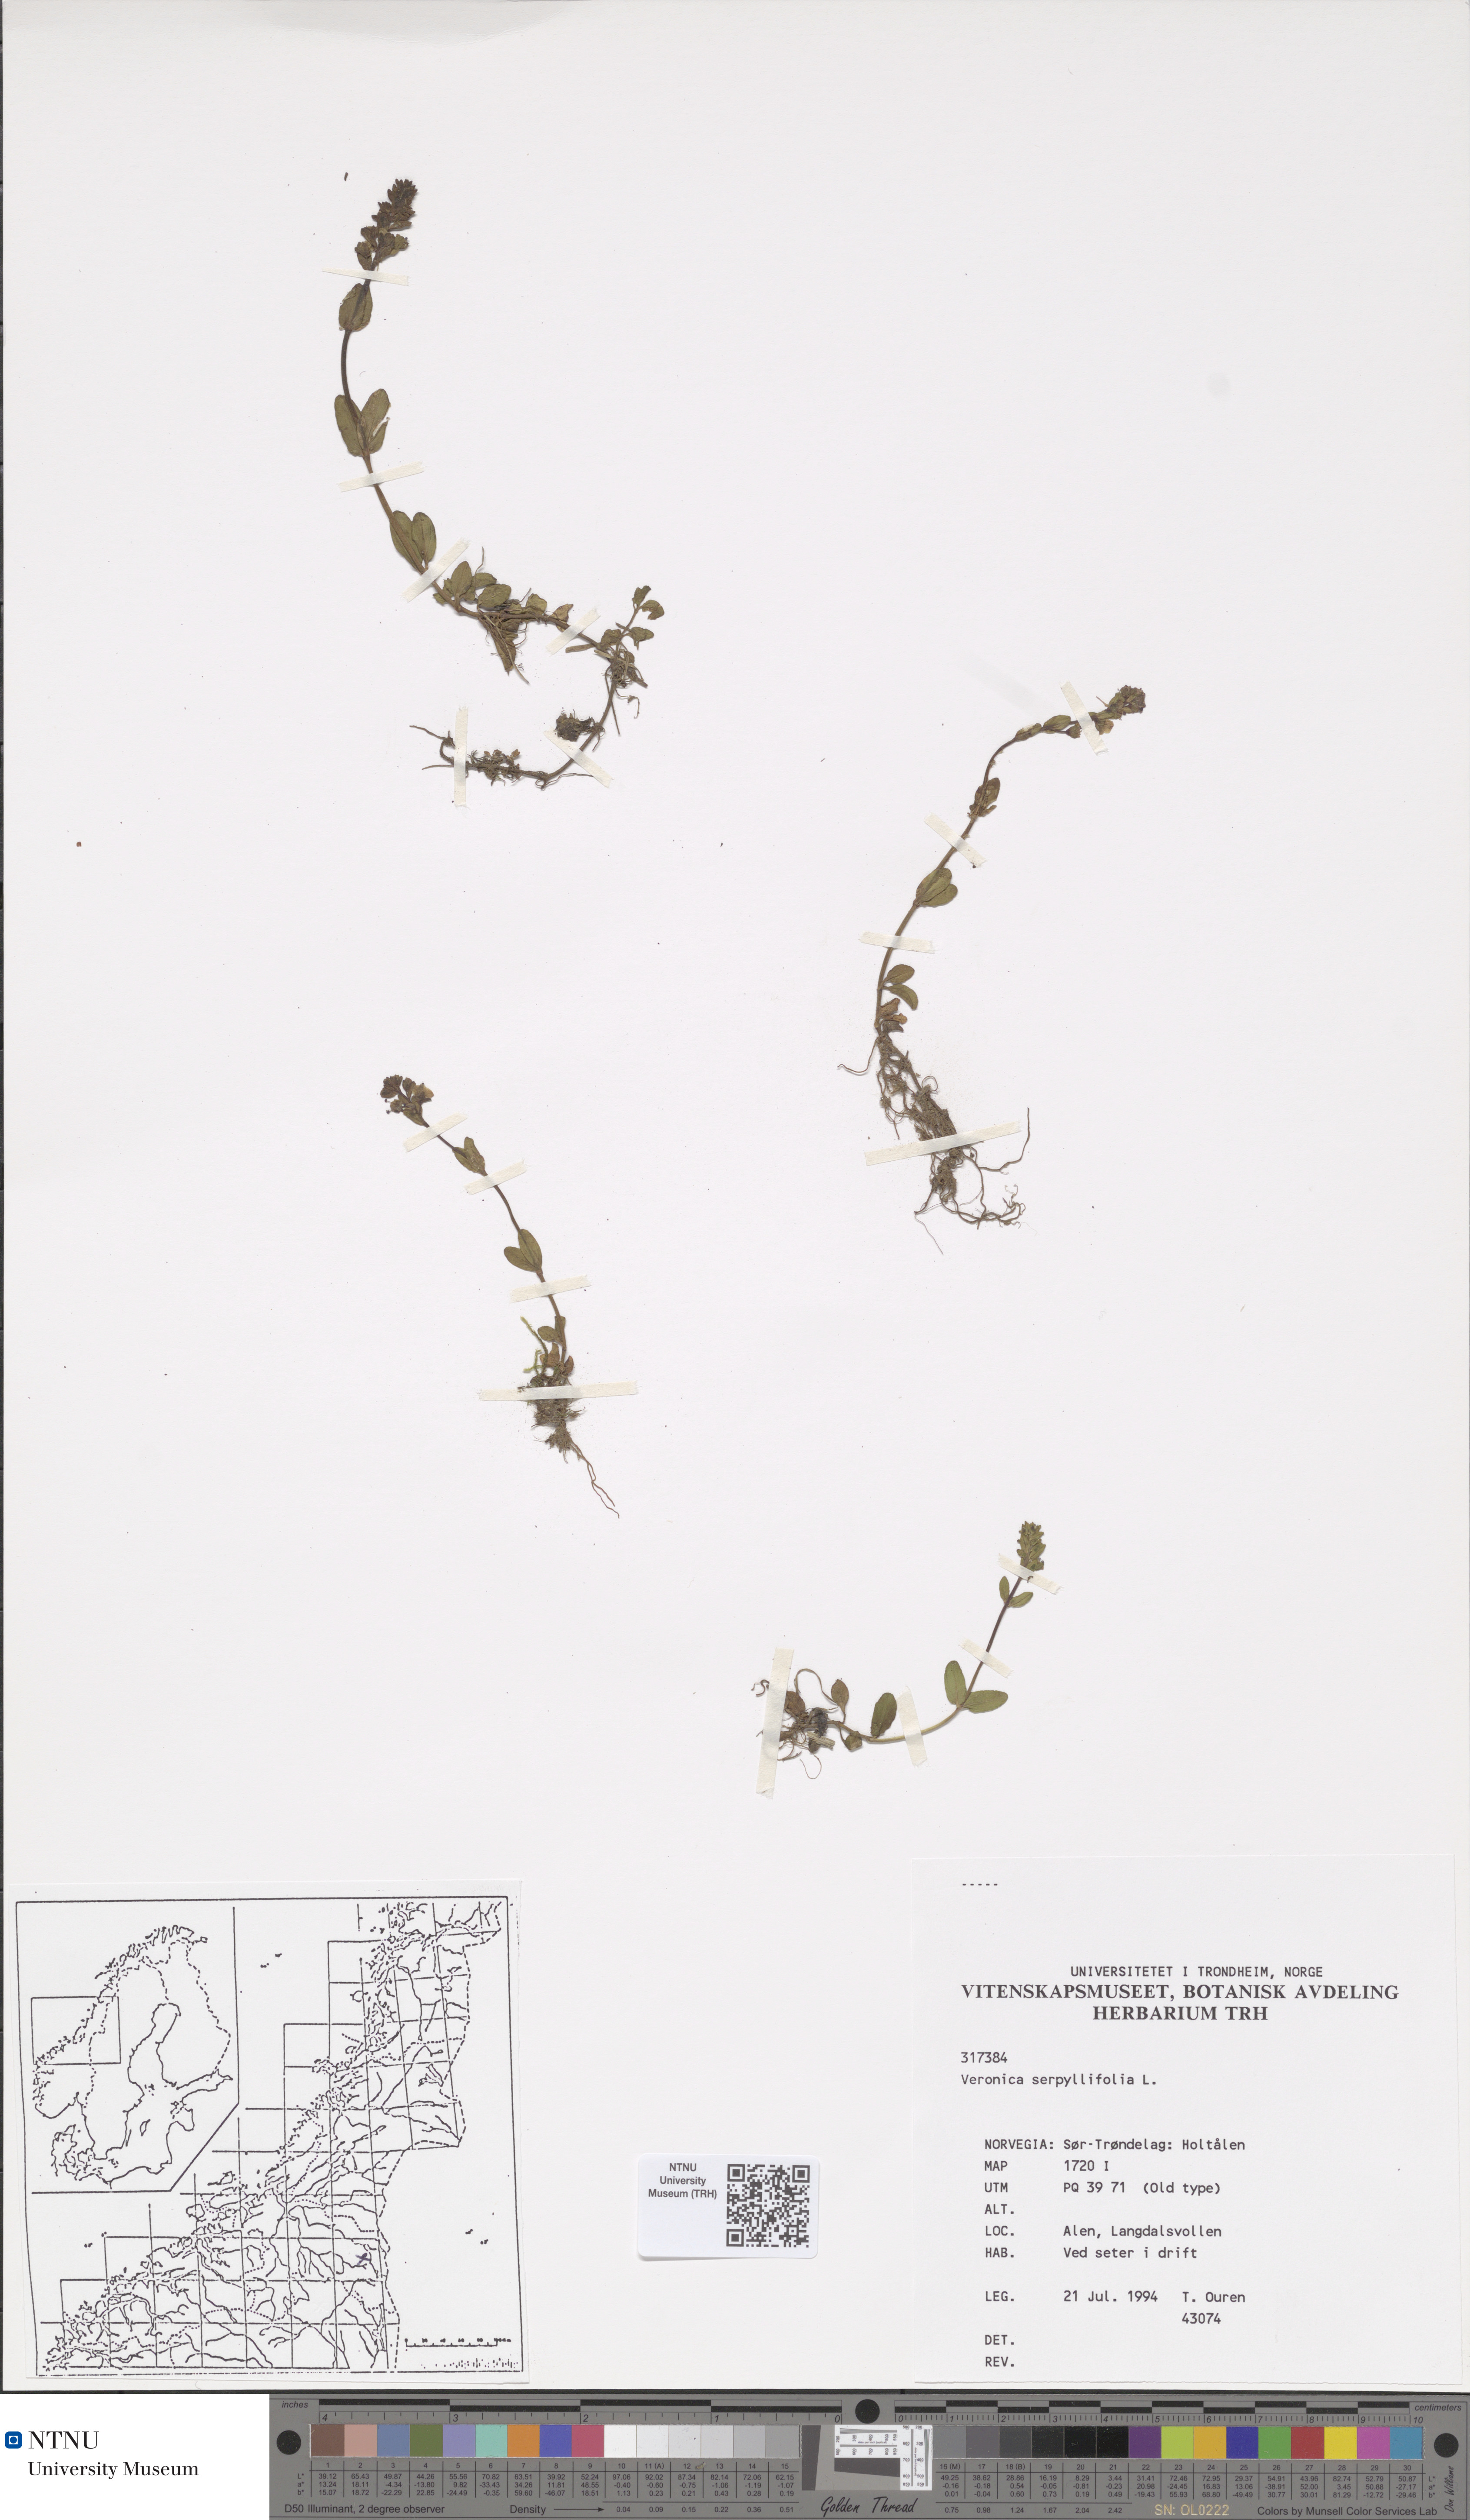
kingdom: Plantae
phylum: Tracheophyta
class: Magnoliopsida
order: Lamiales
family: Plantaginaceae
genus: Veronica
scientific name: Veronica serpyllifolia
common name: Thyme-leaved speedwell
